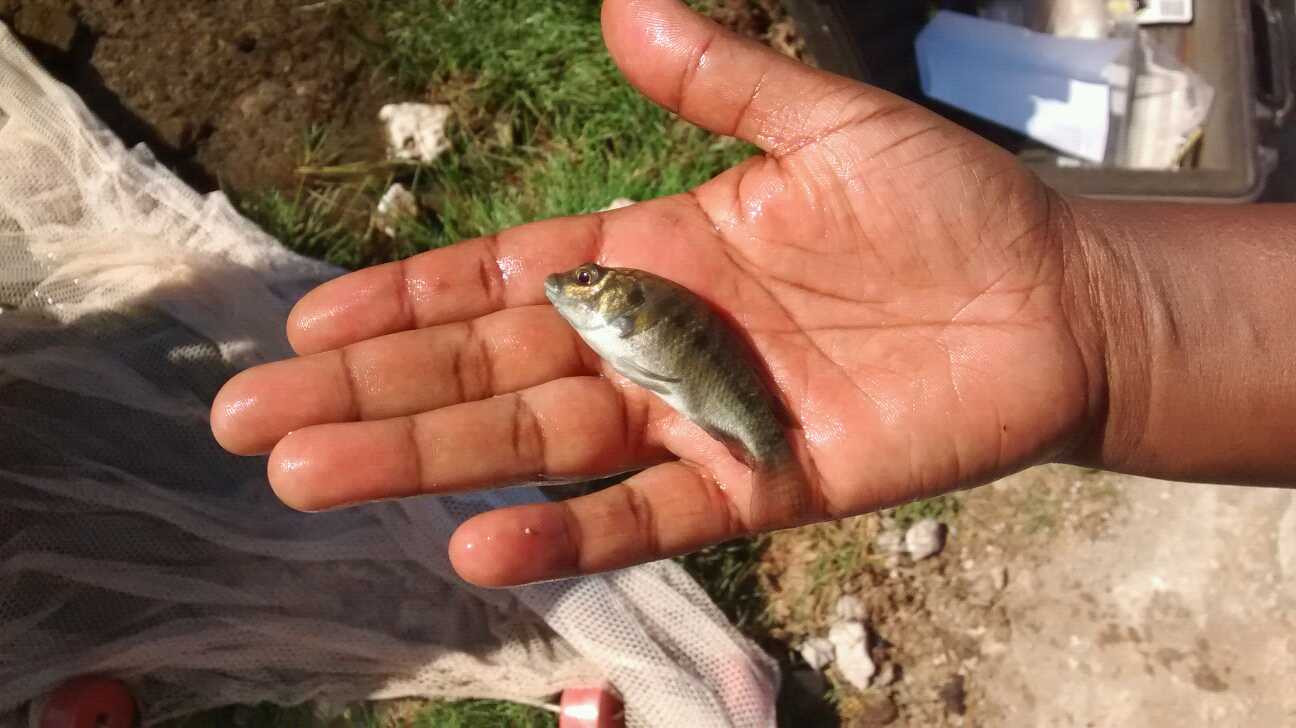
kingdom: Animalia
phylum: Chordata
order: Perciformes
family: Cichlidae
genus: Oreochromis
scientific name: Oreochromis spilurus
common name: Sabaki tilapia
